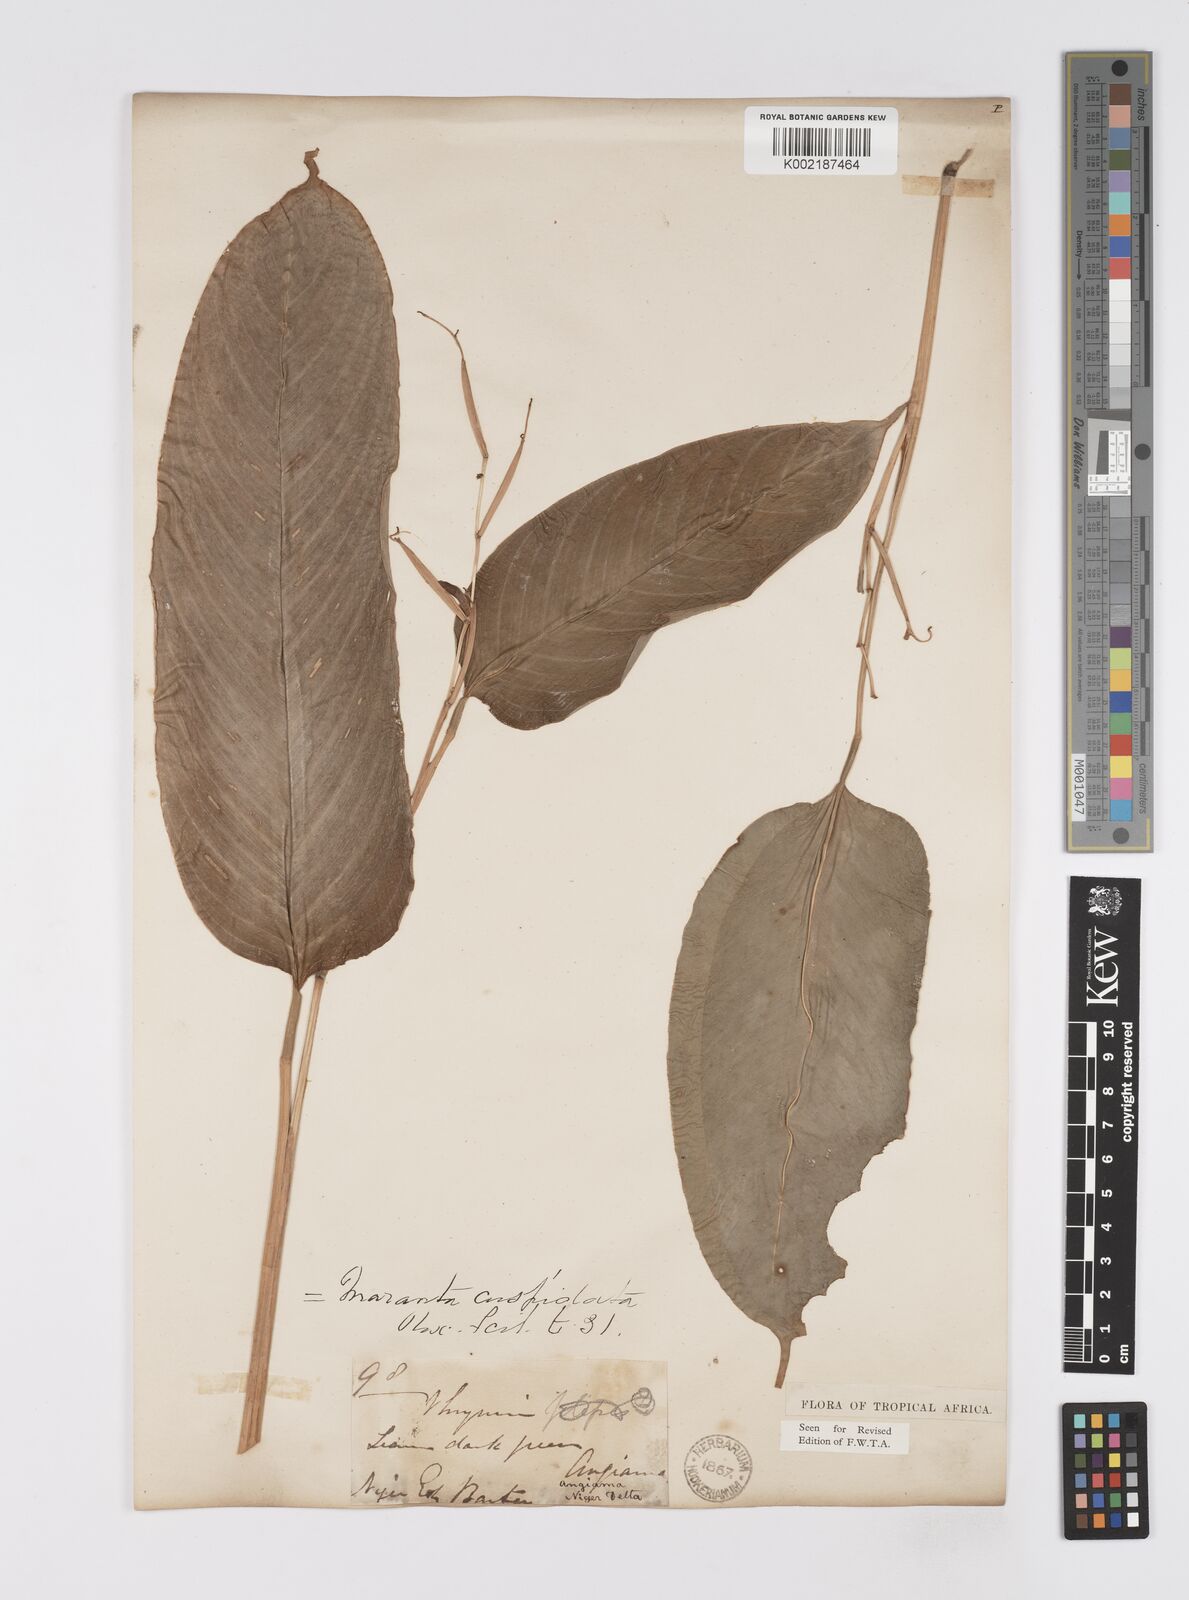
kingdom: Plantae
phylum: Tracheophyta
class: Liliopsida
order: Zingiberales
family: Marantaceae
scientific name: Marantaceae
